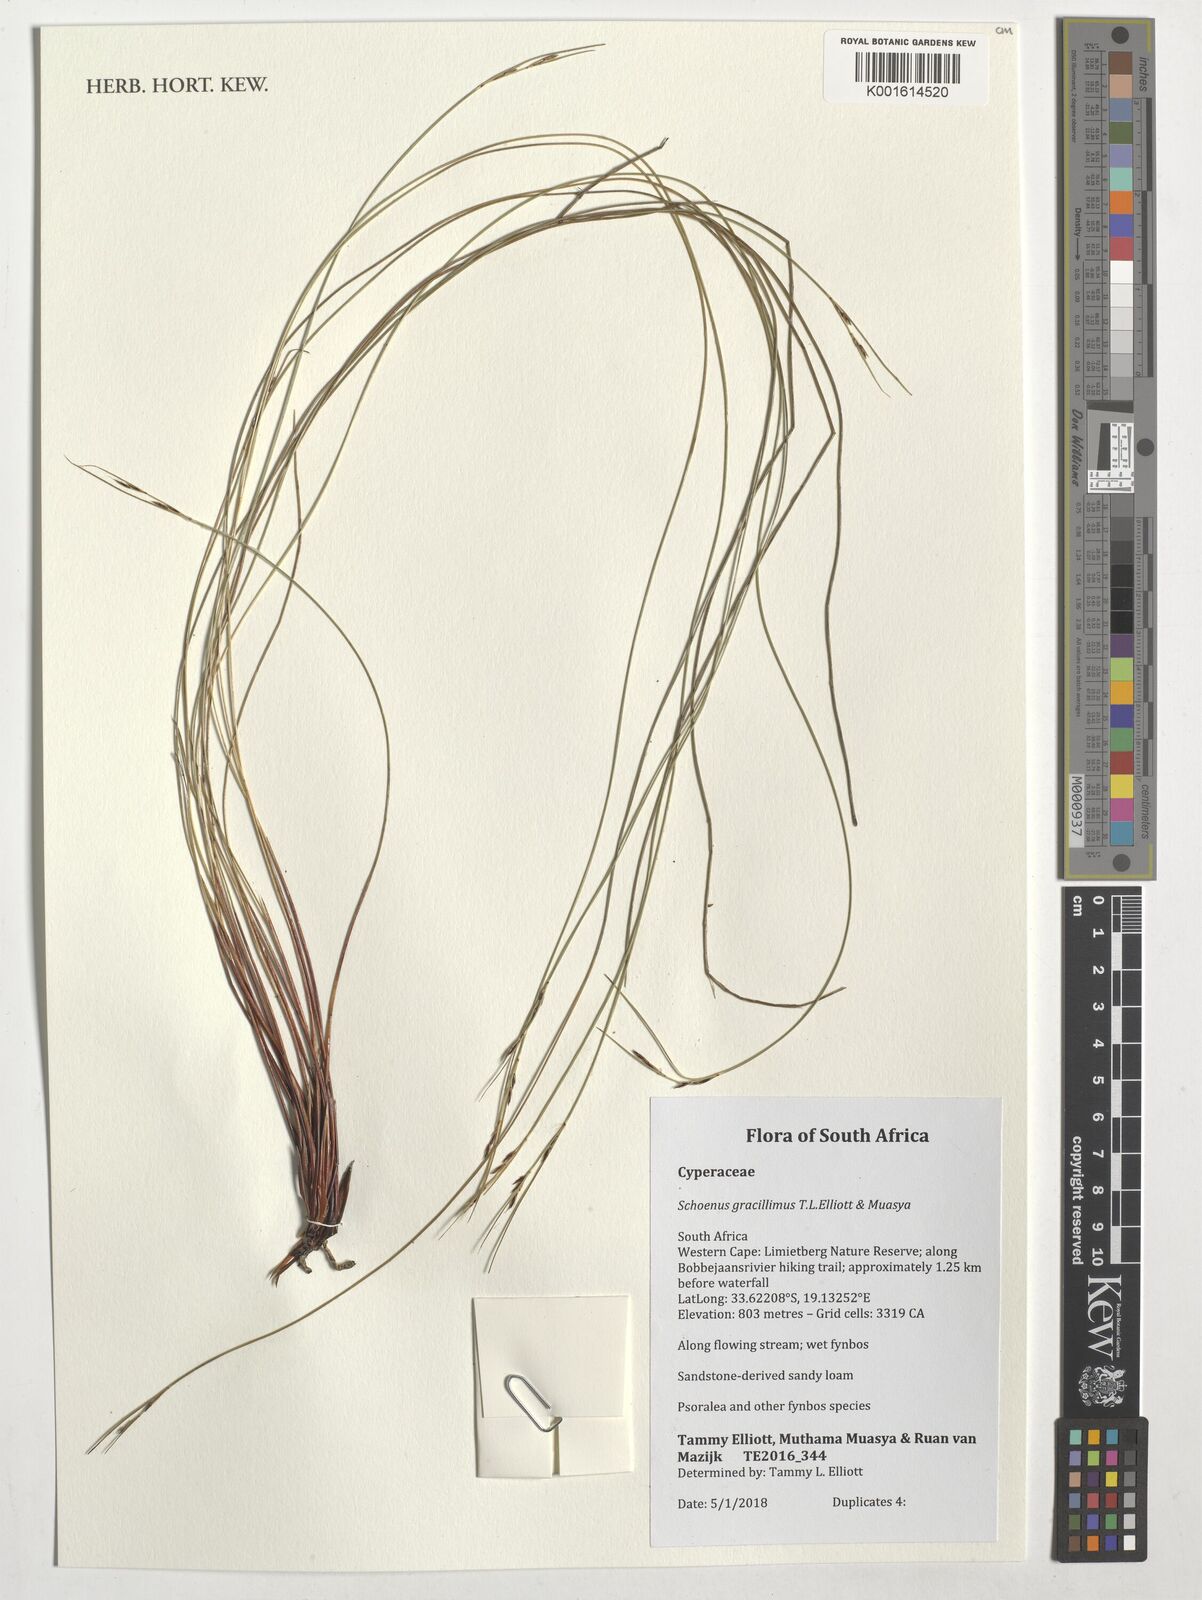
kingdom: Plantae
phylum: Tracheophyta
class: Liliopsida
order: Poales
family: Cyperaceae
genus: Schoenus
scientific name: Schoenus gracillimus
